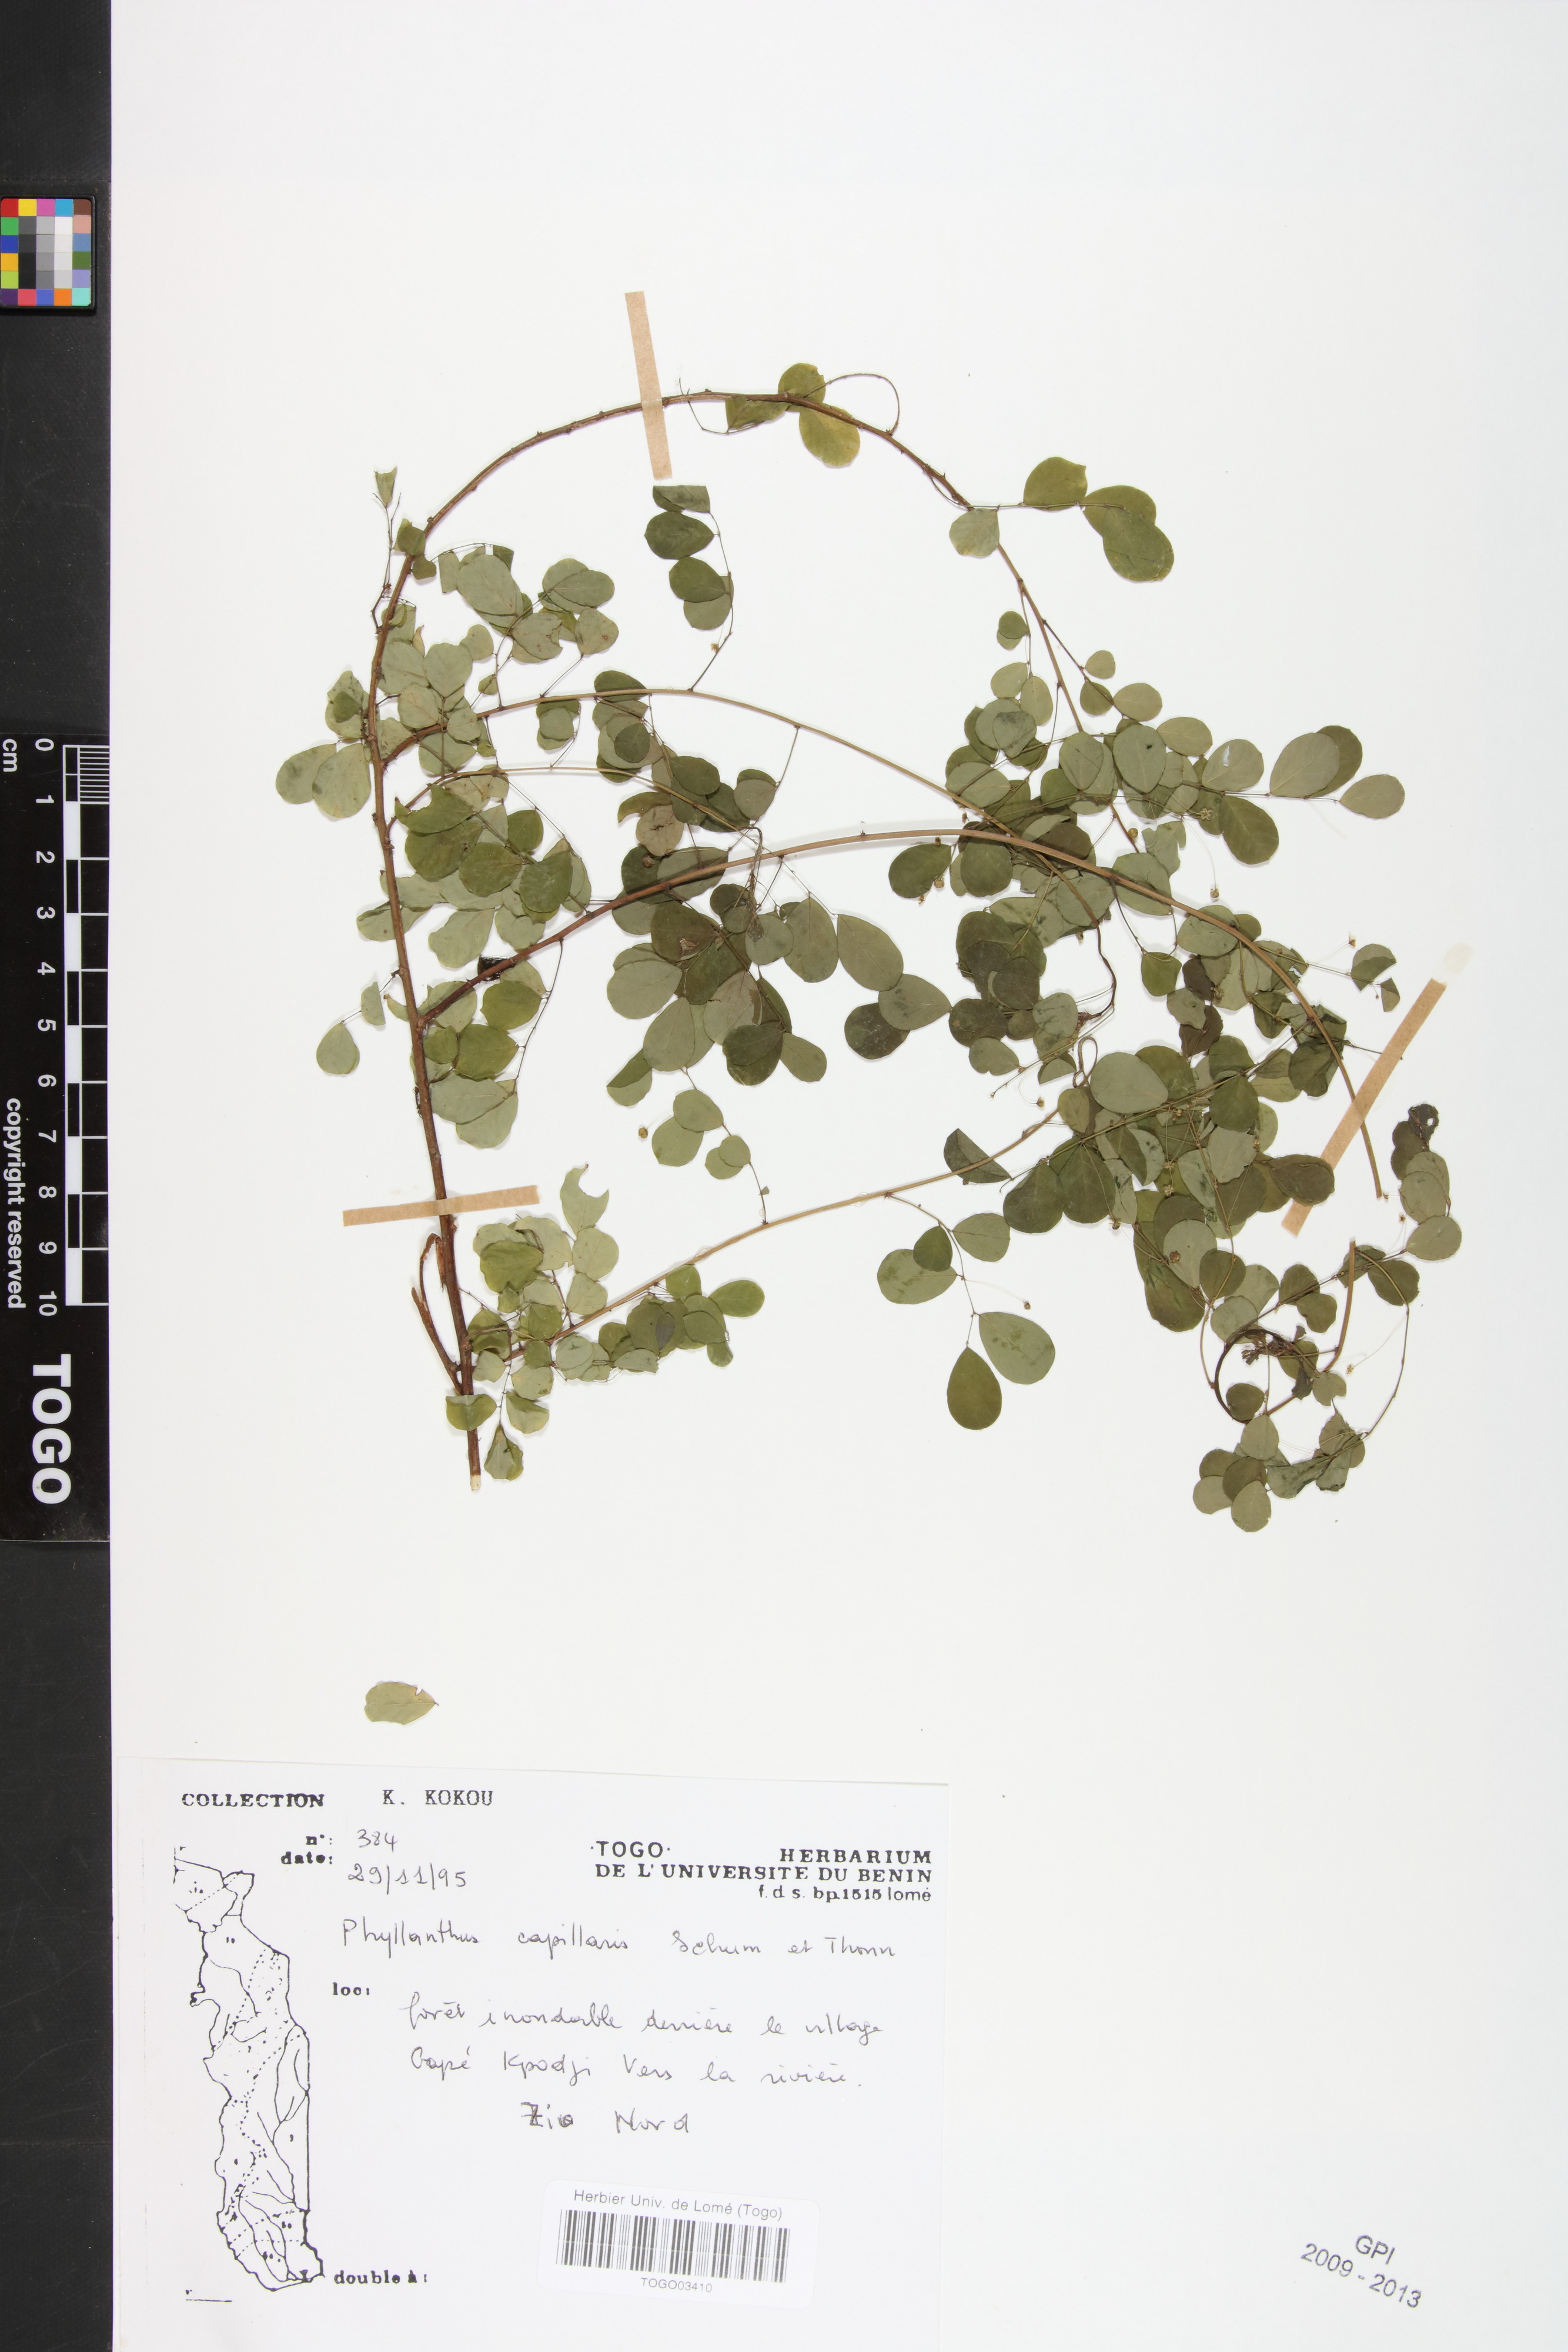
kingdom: Plantae
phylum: Tracheophyta
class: Magnoliopsida
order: Malpighiales
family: Phyllanthaceae
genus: Phyllanthus
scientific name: Phyllanthus nummulariifolius
